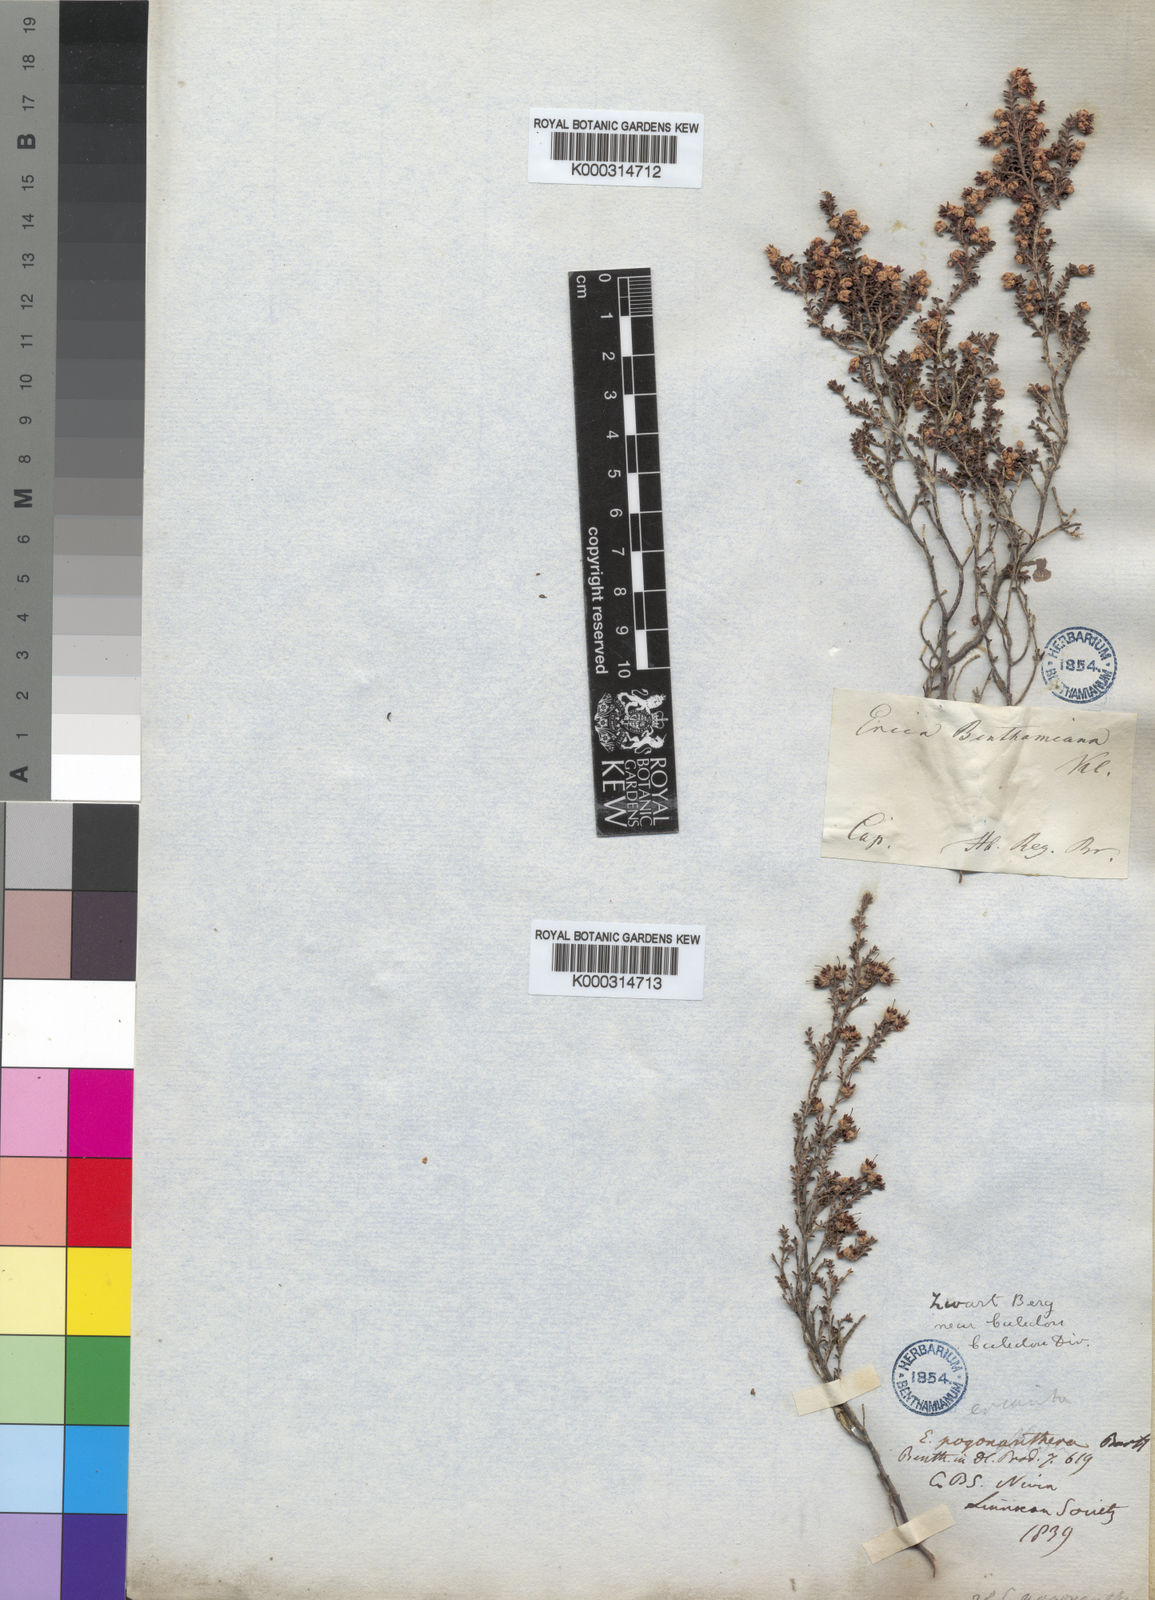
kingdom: Plantae
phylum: Tracheophyta
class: Magnoliopsida
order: Ericales
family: Ericaceae
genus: Erica
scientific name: Erica pogonanthera
